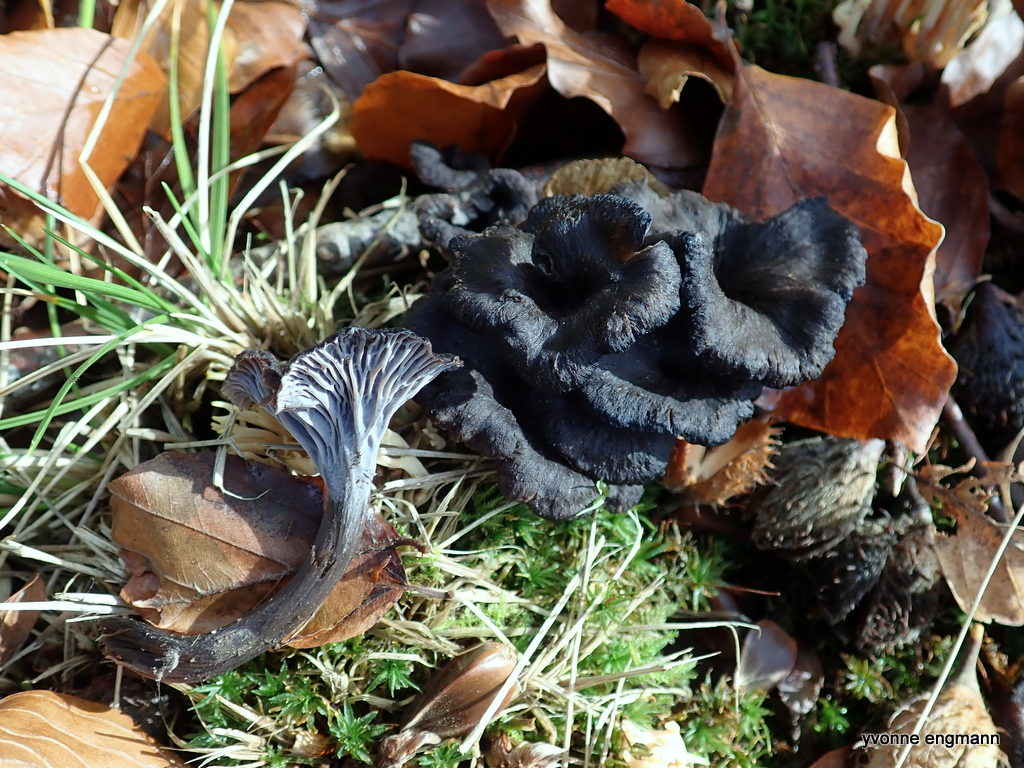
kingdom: Fungi
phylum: Basidiomycota
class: Agaricomycetes
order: Cantharellales
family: Hydnaceae
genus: Cantharellus
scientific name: Cantharellus cinereus
